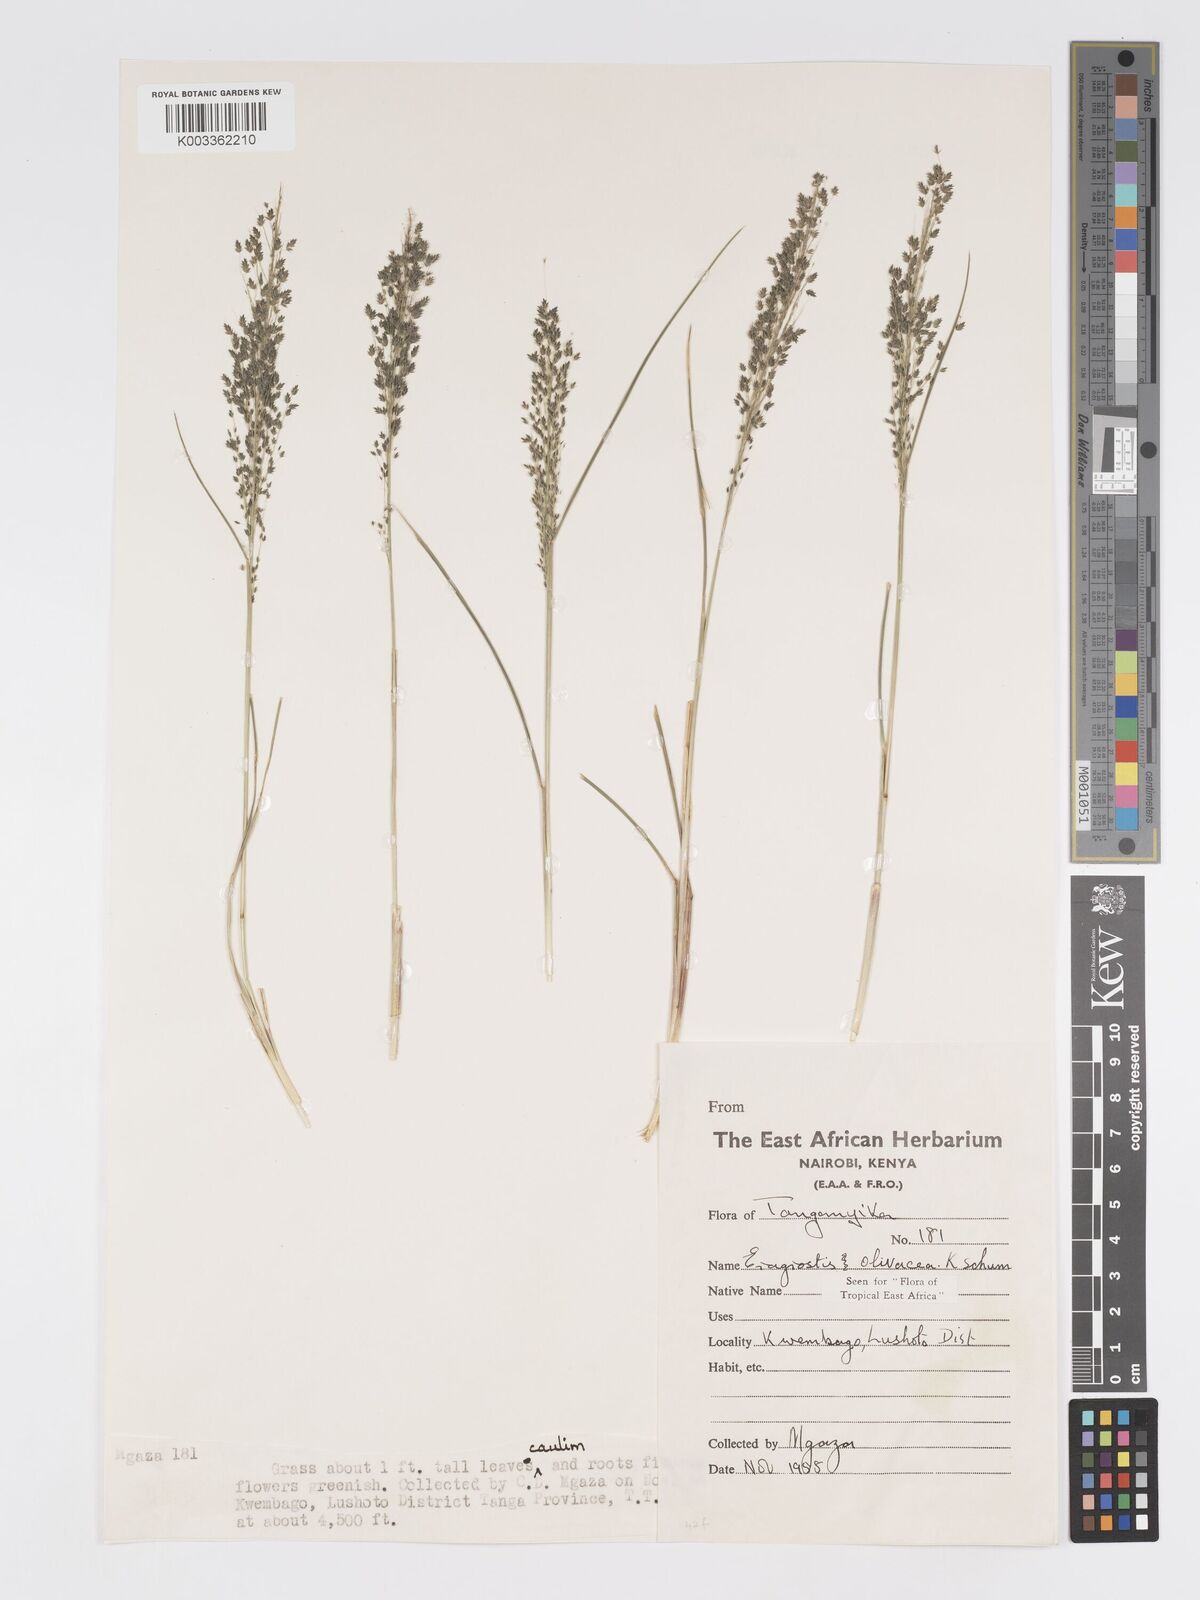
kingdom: Plantae
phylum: Tracheophyta
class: Liliopsida
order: Poales
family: Poaceae
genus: Eragrostis
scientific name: Eragrostis olivacea
